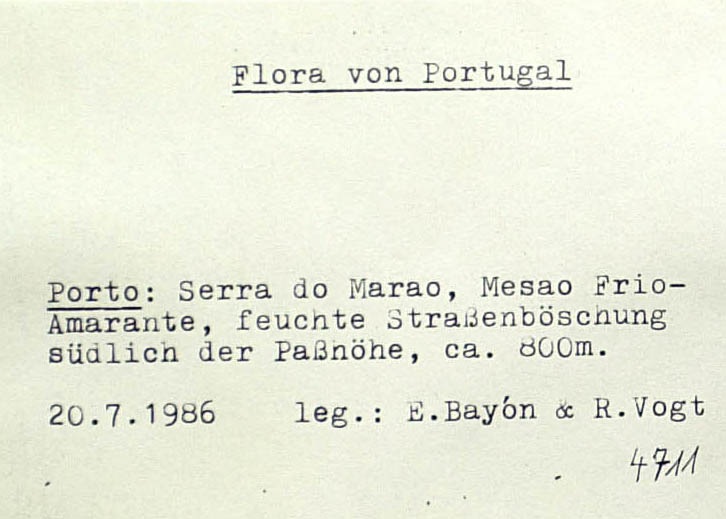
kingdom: Plantae
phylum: Tracheophyta
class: Magnoliopsida
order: Asterales
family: Asteraceae
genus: Leucanthemum
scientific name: Leucanthemum pseudosylvaticum
